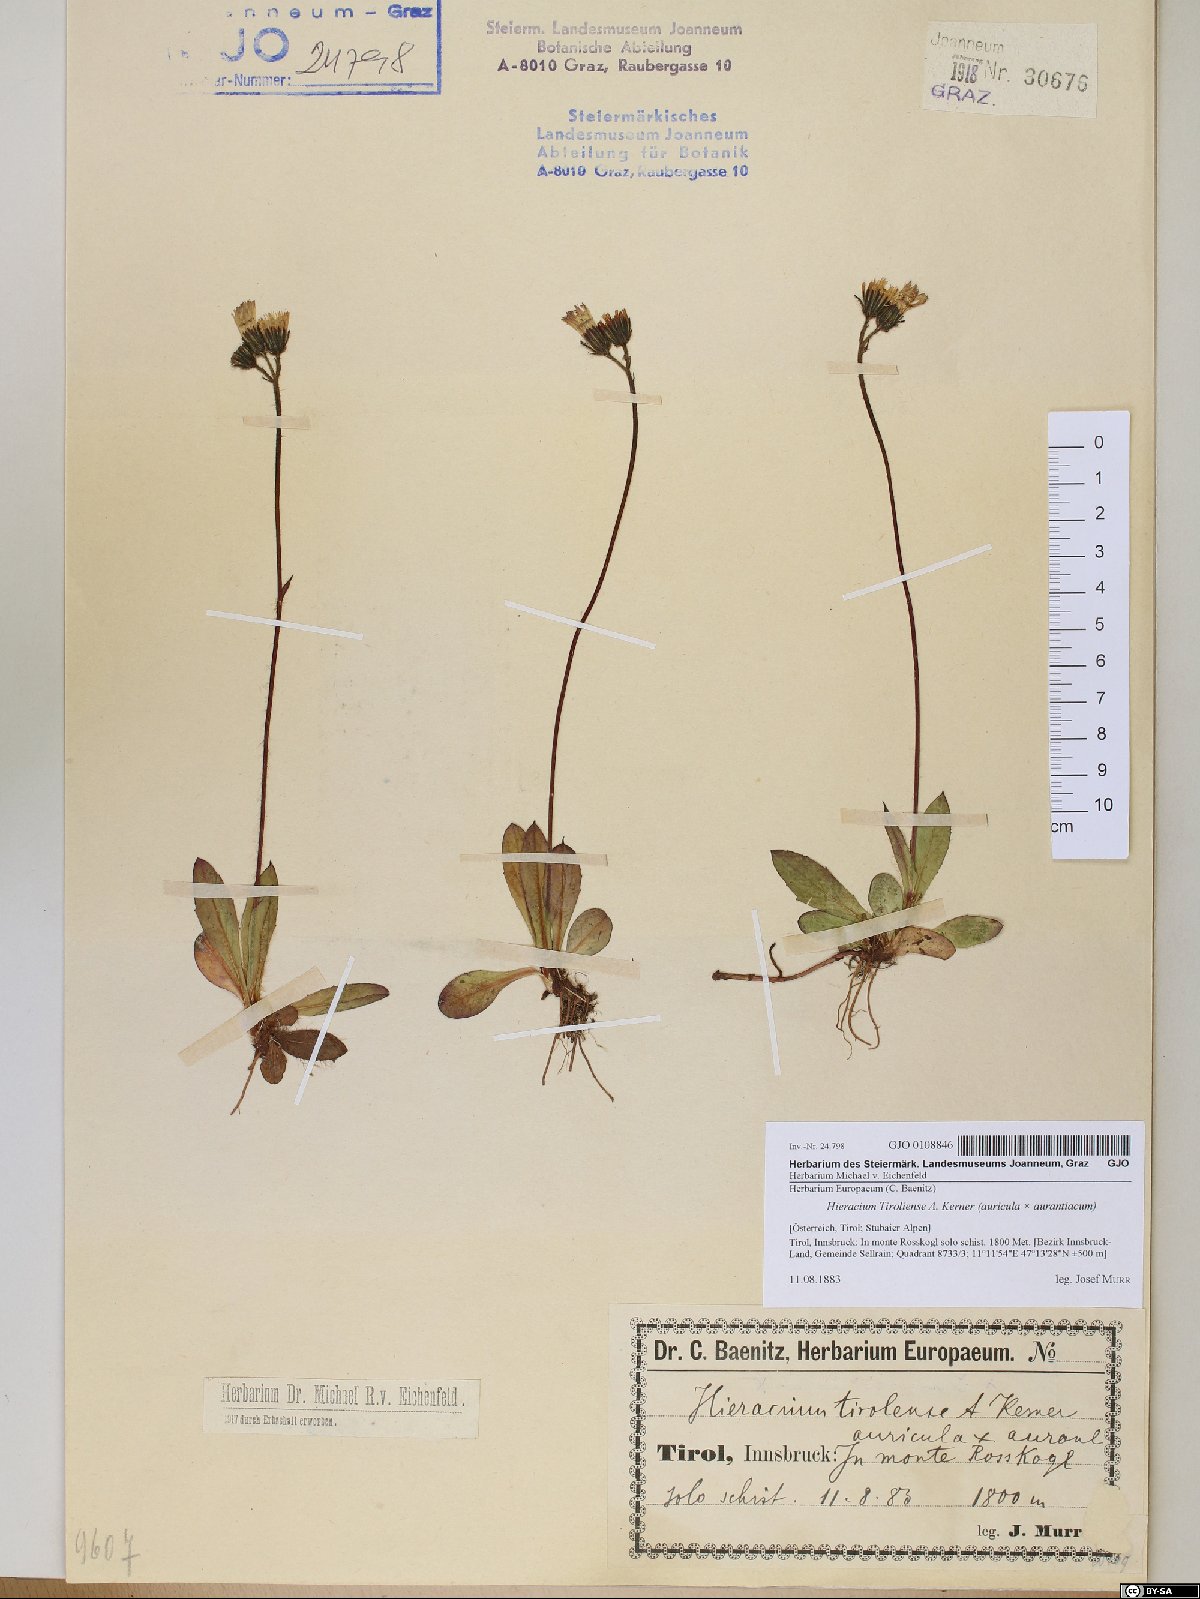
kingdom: Plantae
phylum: Tracheophyta
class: Magnoliopsida
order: Asterales
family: Asteraceae
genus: Pilosella
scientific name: Pilosella fusca
